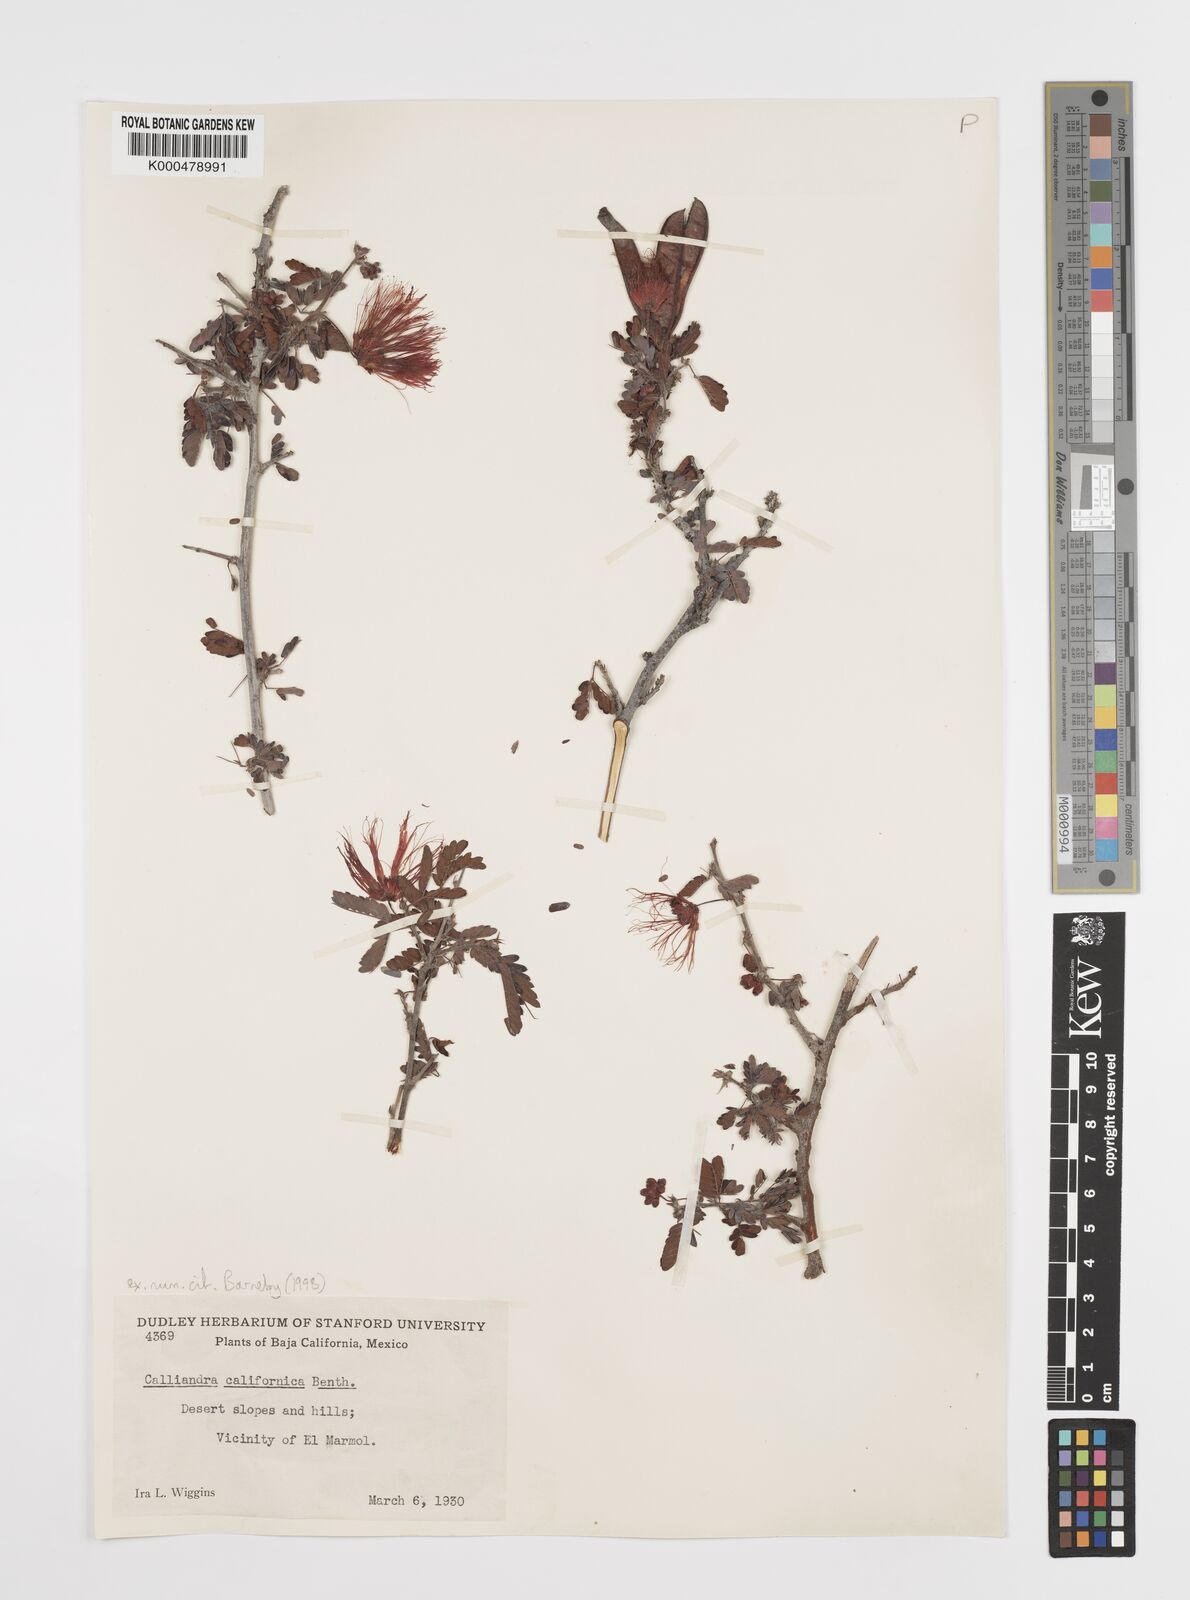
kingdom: Plantae
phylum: Tracheophyta
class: Magnoliopsida
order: Fabales
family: Fabaceae
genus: Calliandra
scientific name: Calliandra
